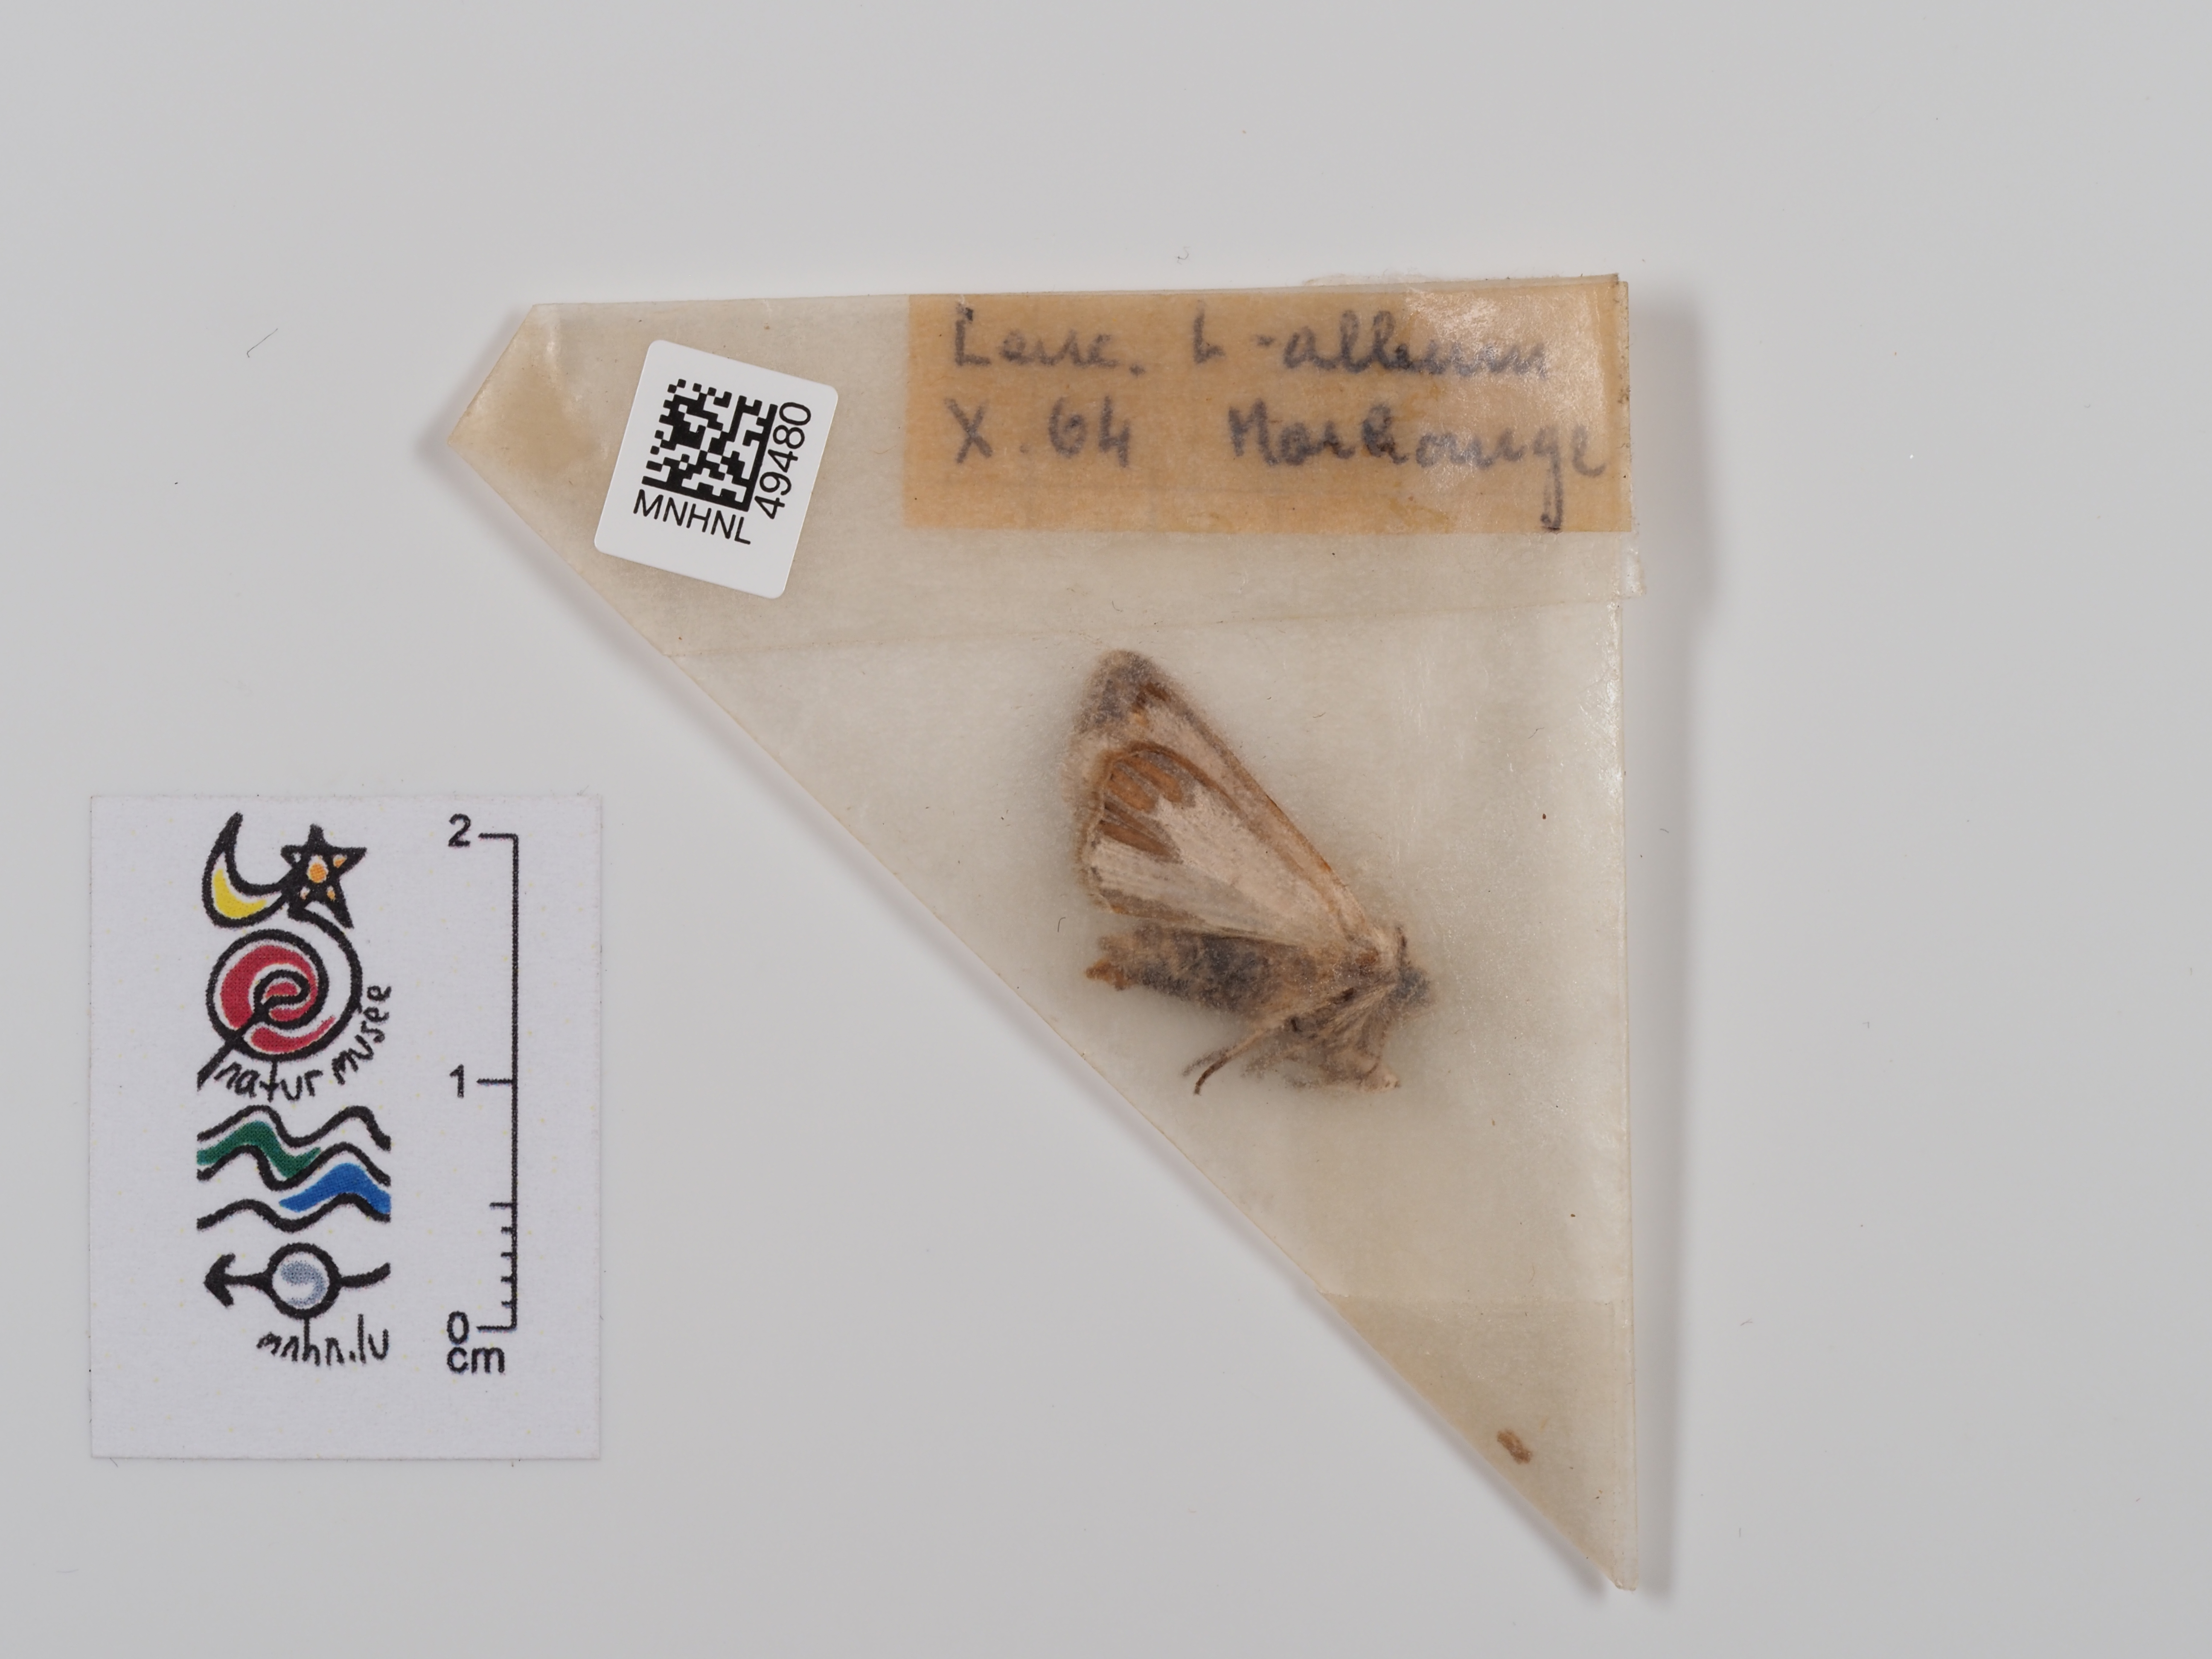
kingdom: Animalia
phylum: Arthropoda
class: Insecta
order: Lepidoptera
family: Noctuidae
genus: Mythimna
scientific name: Mythimna l-album
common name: L-album wainscot
